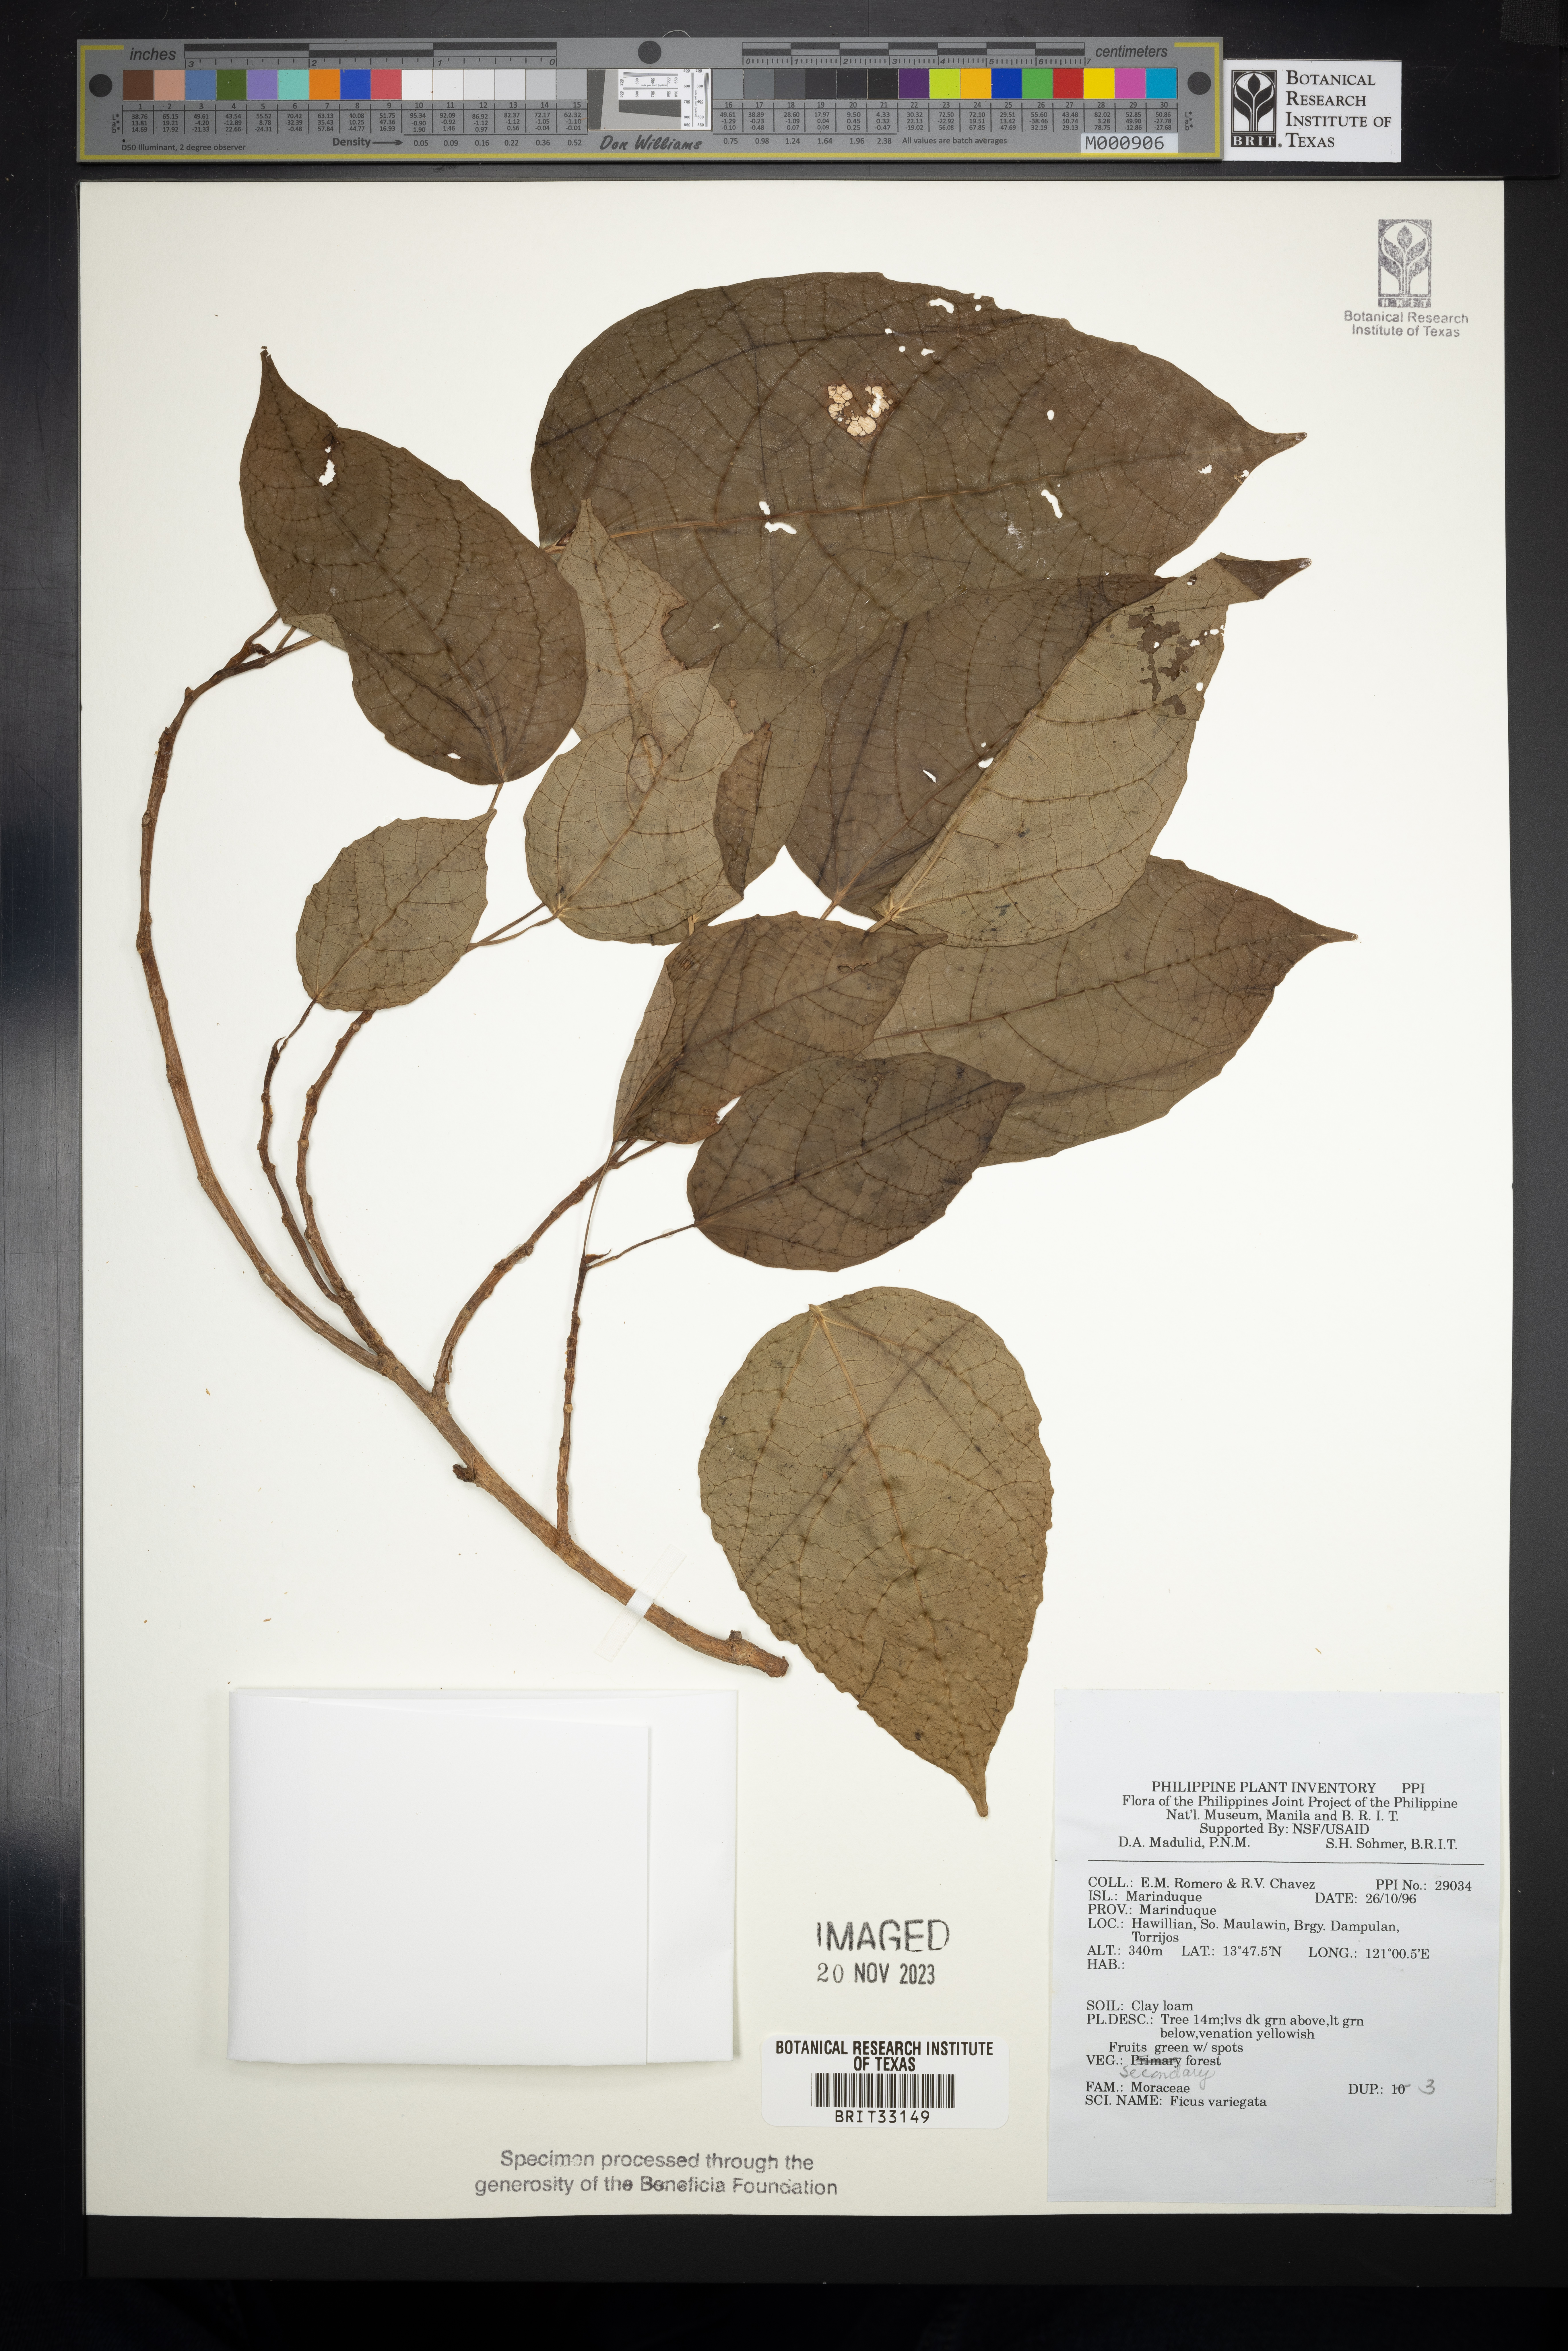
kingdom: Plantae
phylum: Tracheophyta
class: Magnoliopsida
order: Rosales
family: Moraceae
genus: Ficus
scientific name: Ficus variegata
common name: Variegated fig
